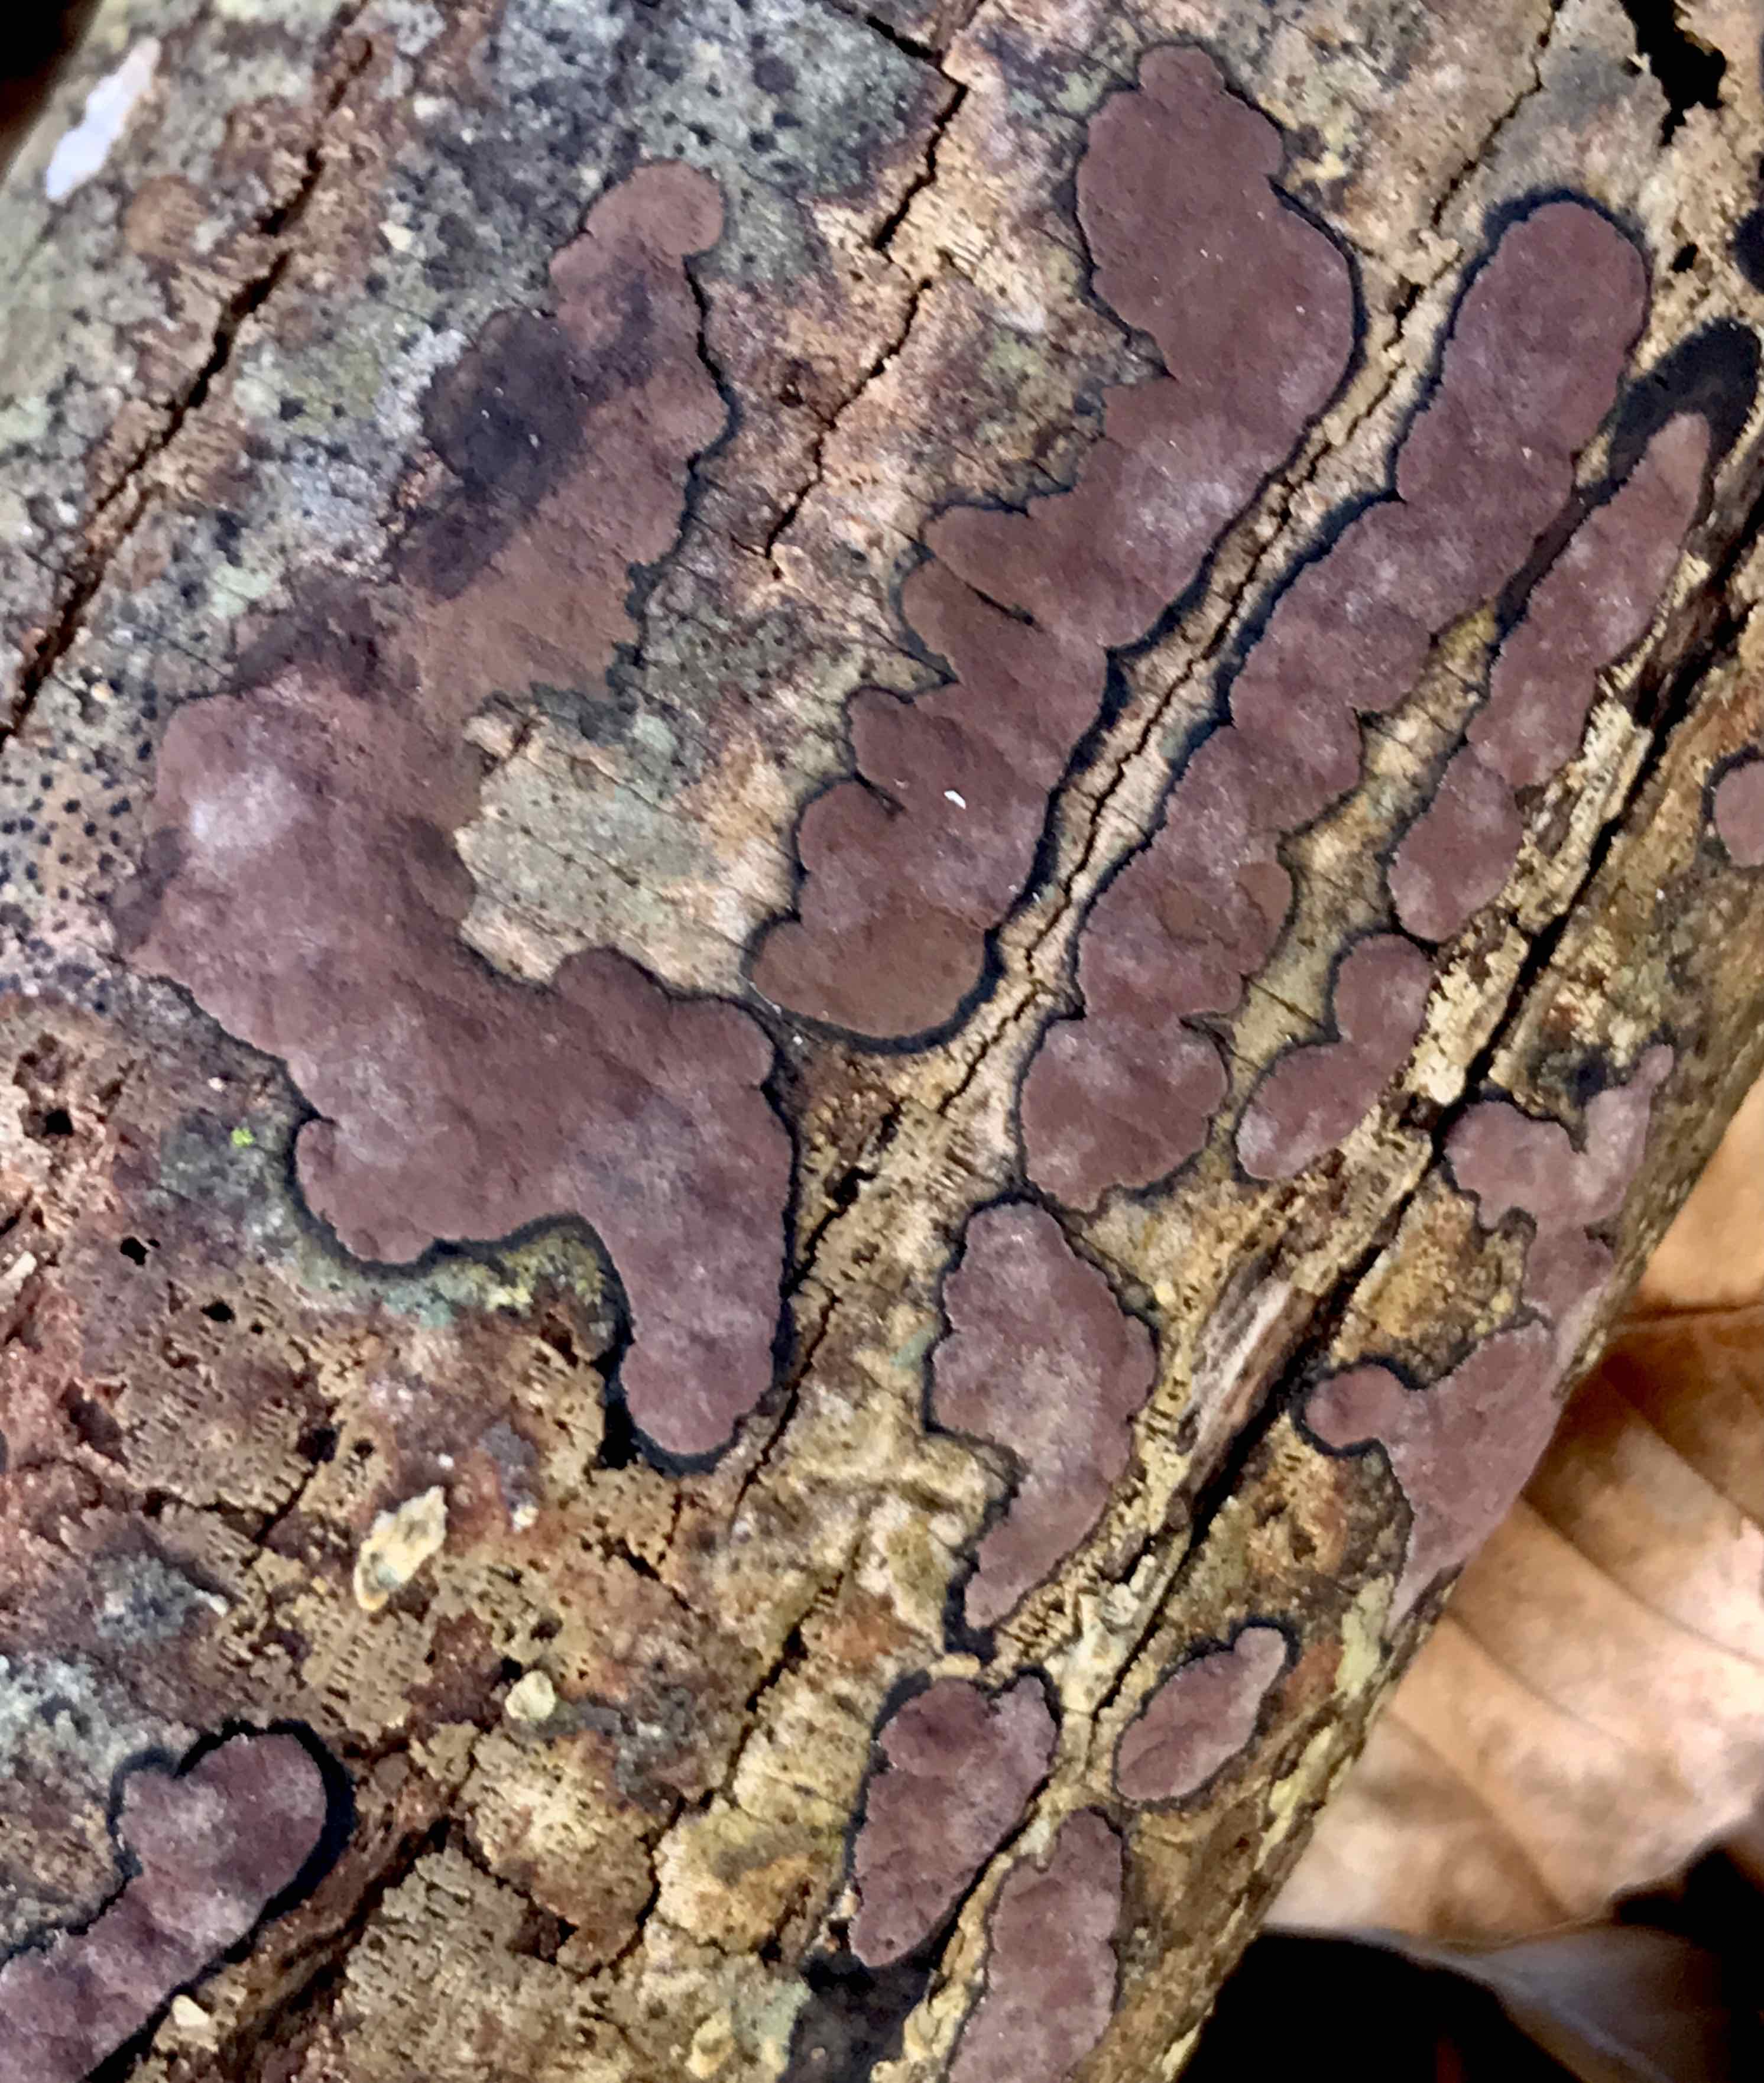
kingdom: Fungi
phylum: Ascomycota
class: Sordariomycetes
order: Xylariales
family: Hypoxylaceae
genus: Hypoxylon
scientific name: Hypoxylon petriniae
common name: nedsænket kulbær
